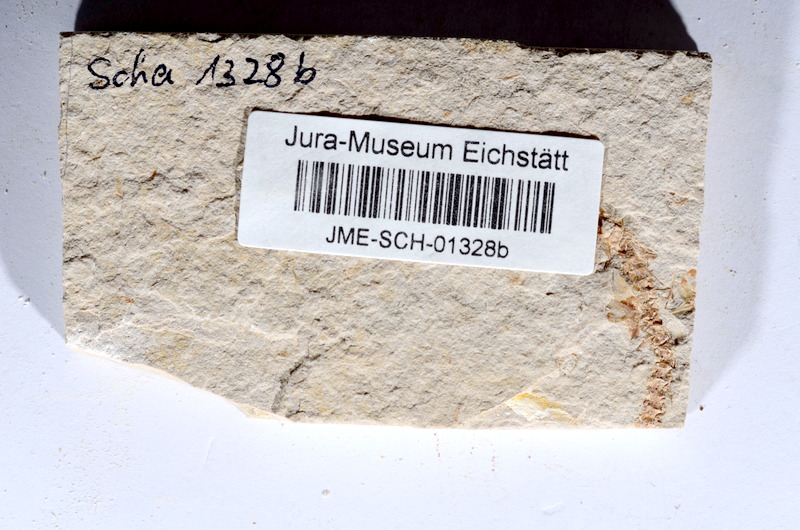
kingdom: Animalia
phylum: Chordata
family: Ascalaboidae
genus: Tharsis
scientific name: Tharsis dubius
